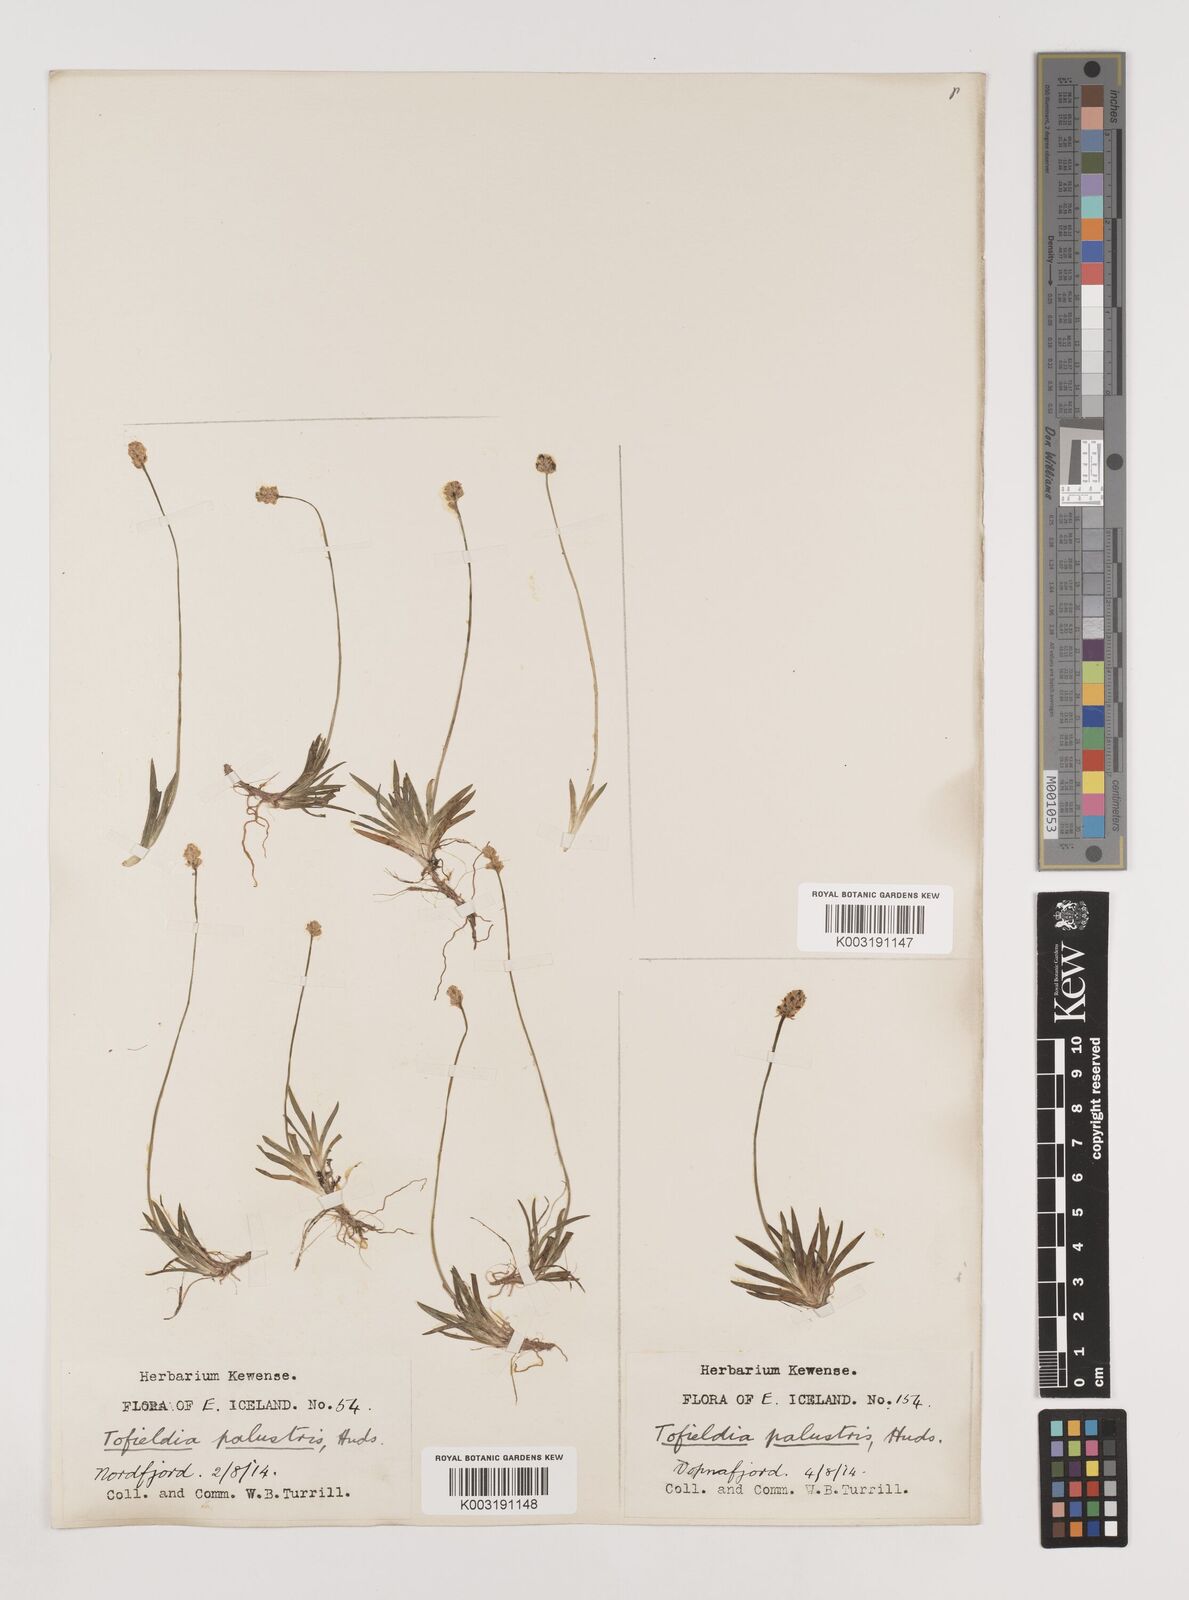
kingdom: Plantae
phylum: Tracheophyta
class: Liliopsida
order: Alismatales
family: Tofieldiaceae
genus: Tofieldia
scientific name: Tofieldia pusilla
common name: Scottish false asphodel
